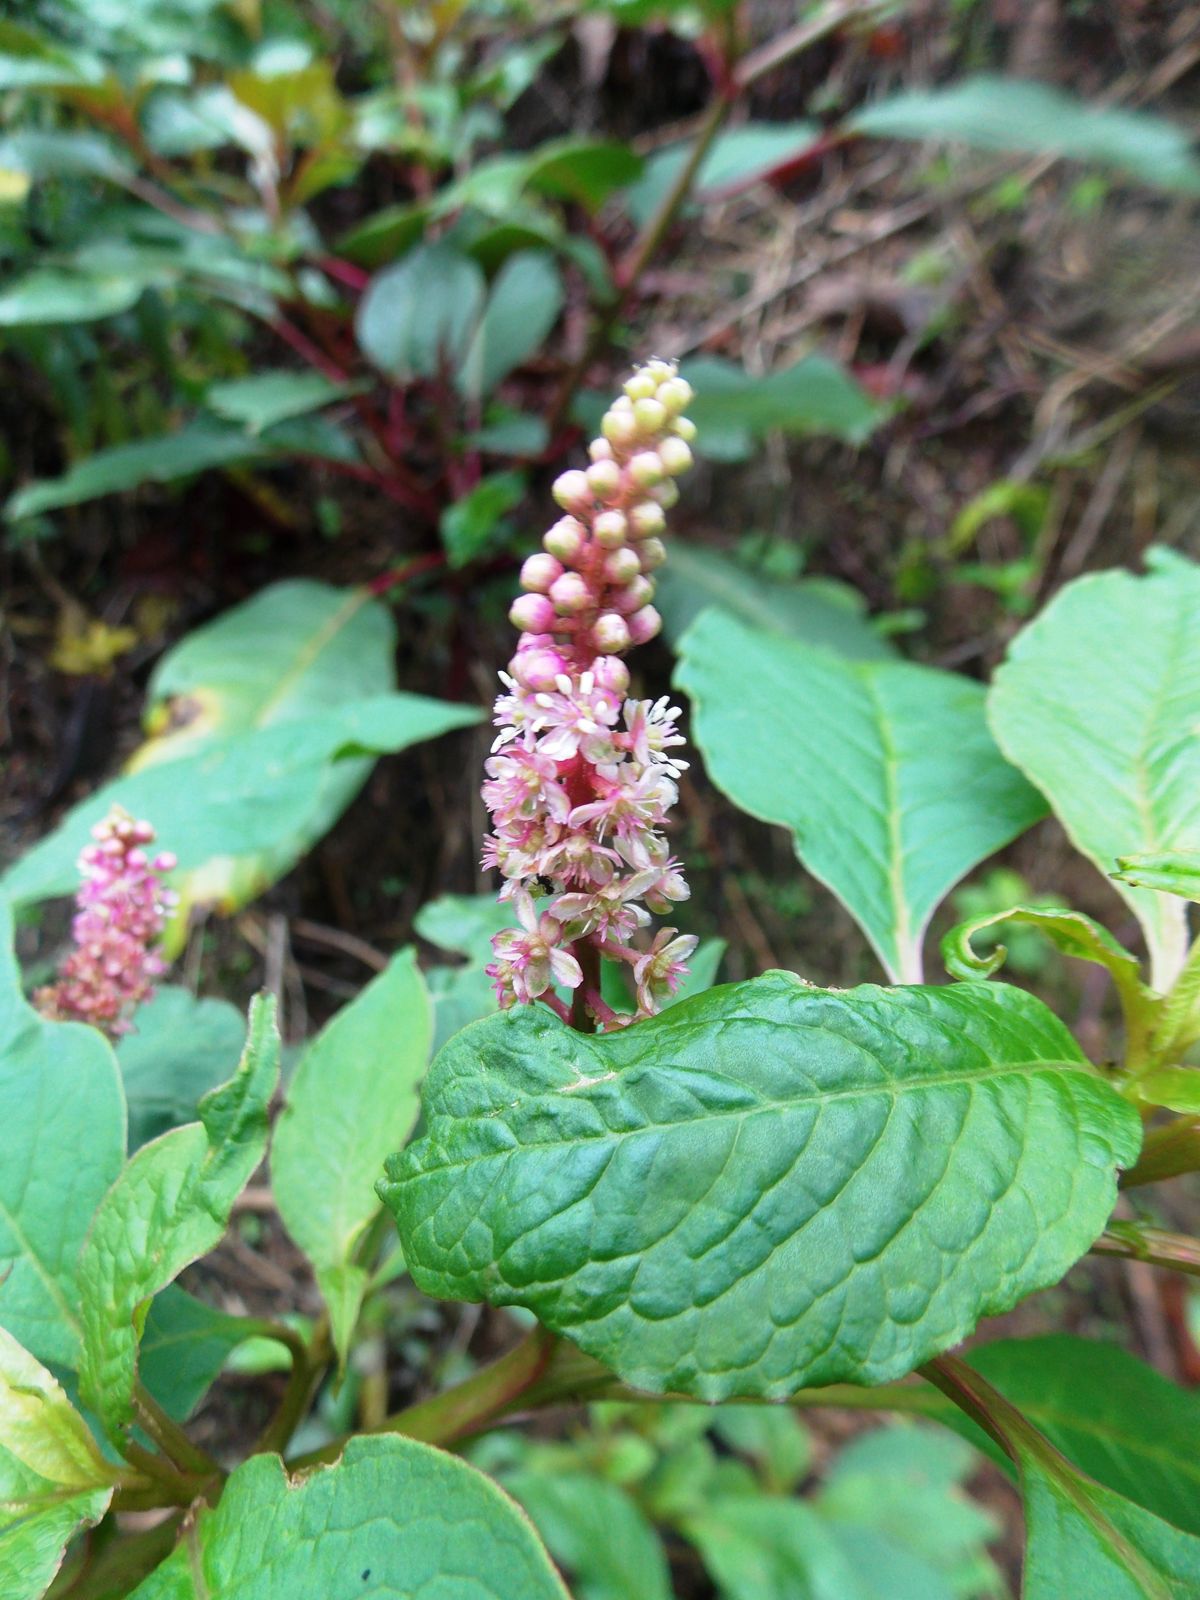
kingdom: Plantae
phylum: Tracheophyta
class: Magnoliopsida
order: Caryophyllales
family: Phytolaccaceae
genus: Phytolacca
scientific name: Phytolacca rugosa
